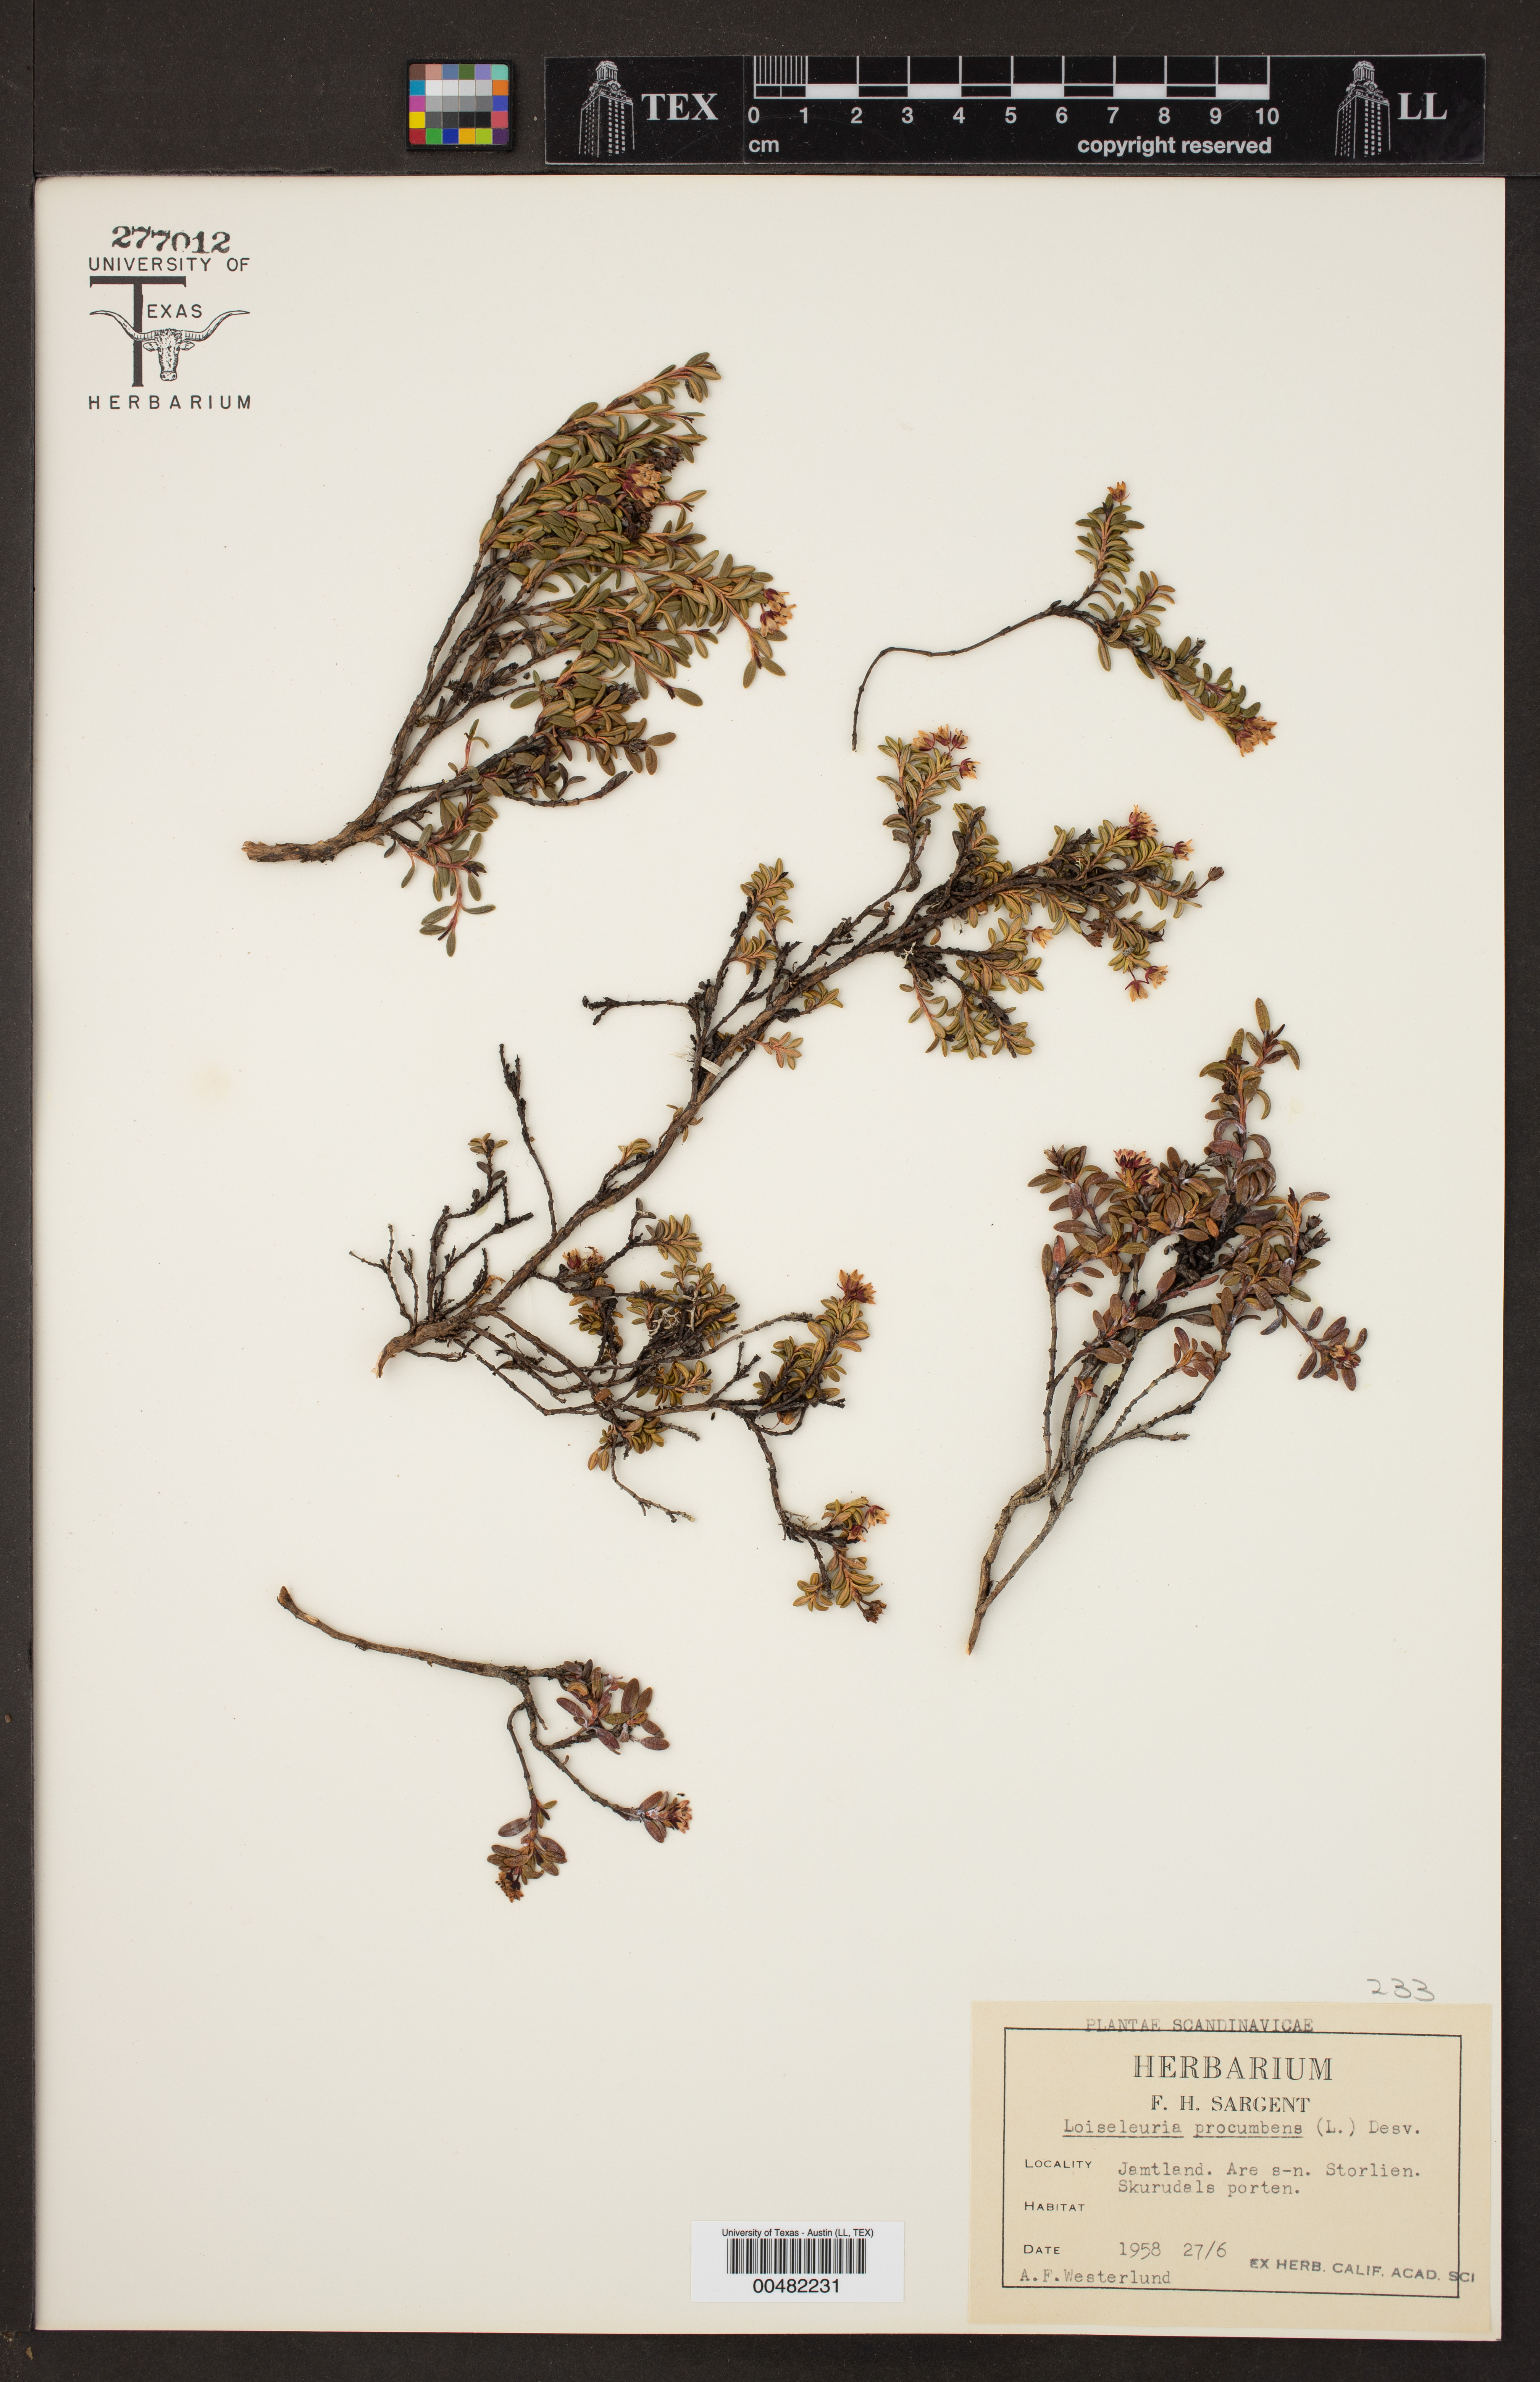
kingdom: Plantae
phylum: Tracheophyta
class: Magnoliopsida
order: Ericales
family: Ericaceae
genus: Kalmia
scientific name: Kalmia procumbens
